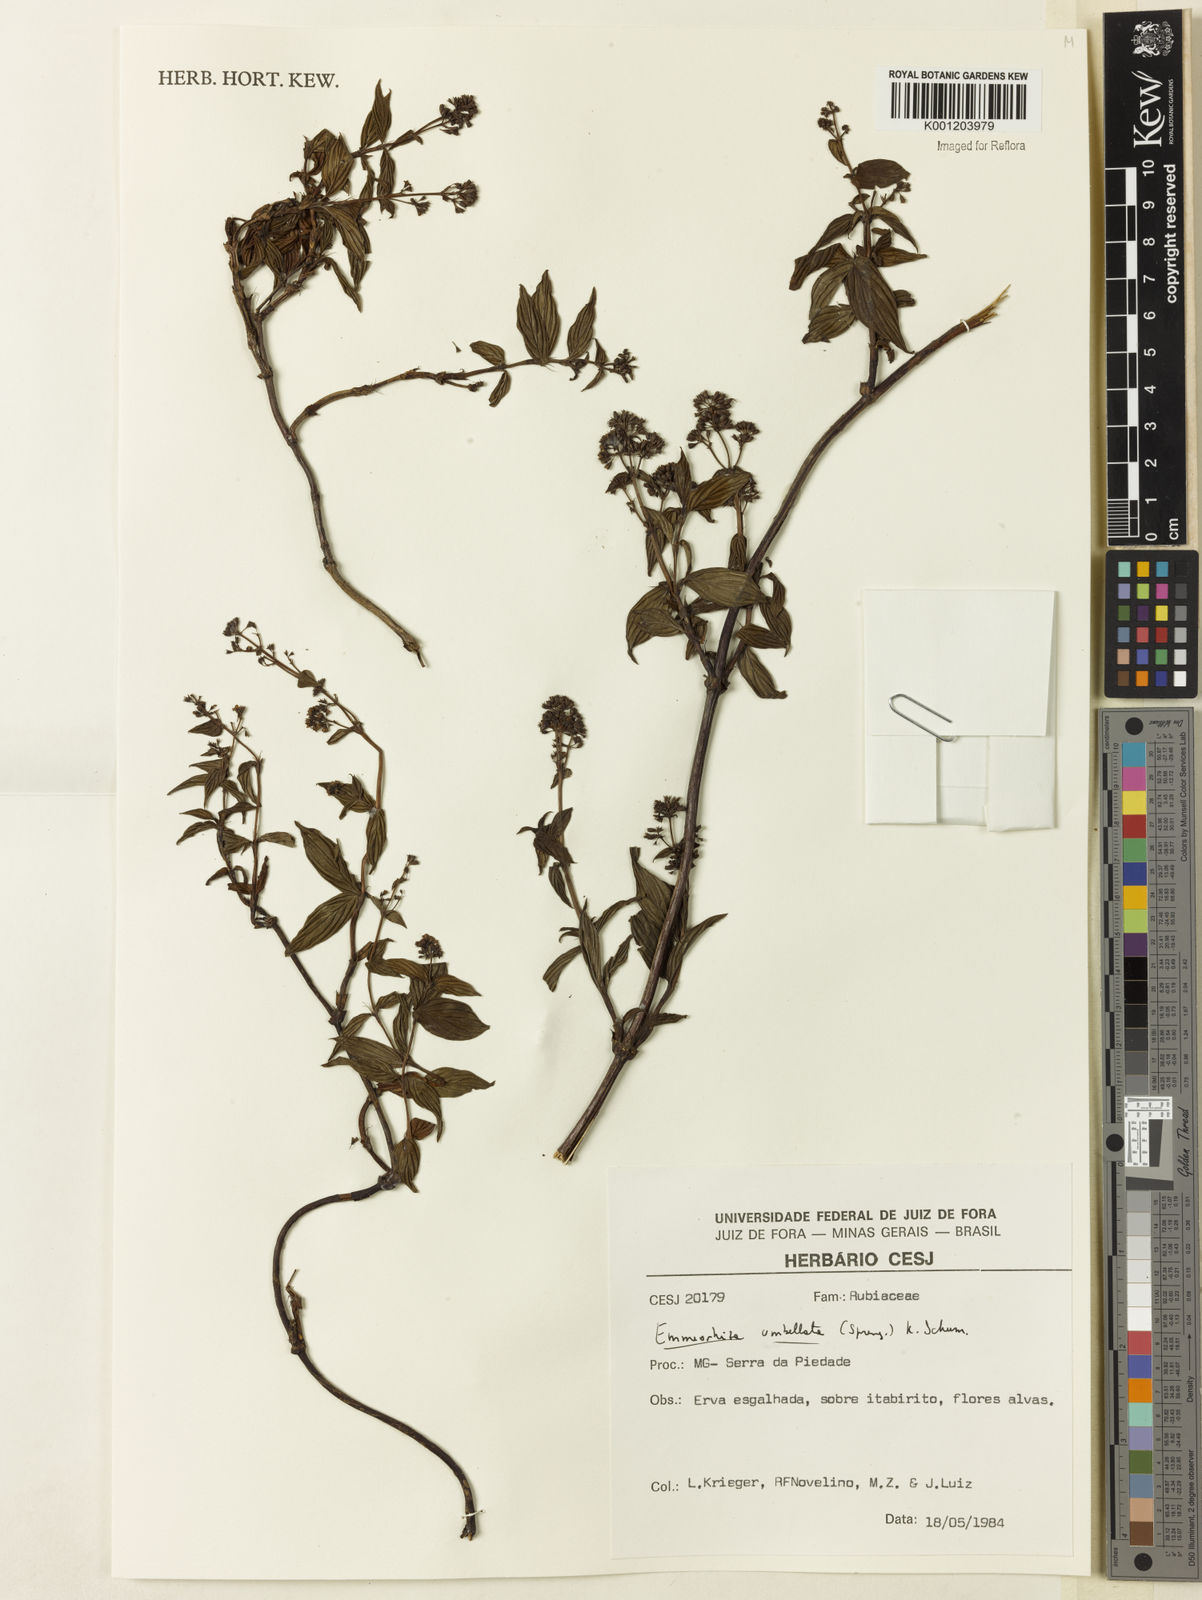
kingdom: Plantae
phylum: Tracheophyta
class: Magnoliopsida
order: Gentianales
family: Rubiaceae
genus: Emmeorhiza
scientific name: Emmeorhiza umbellata
